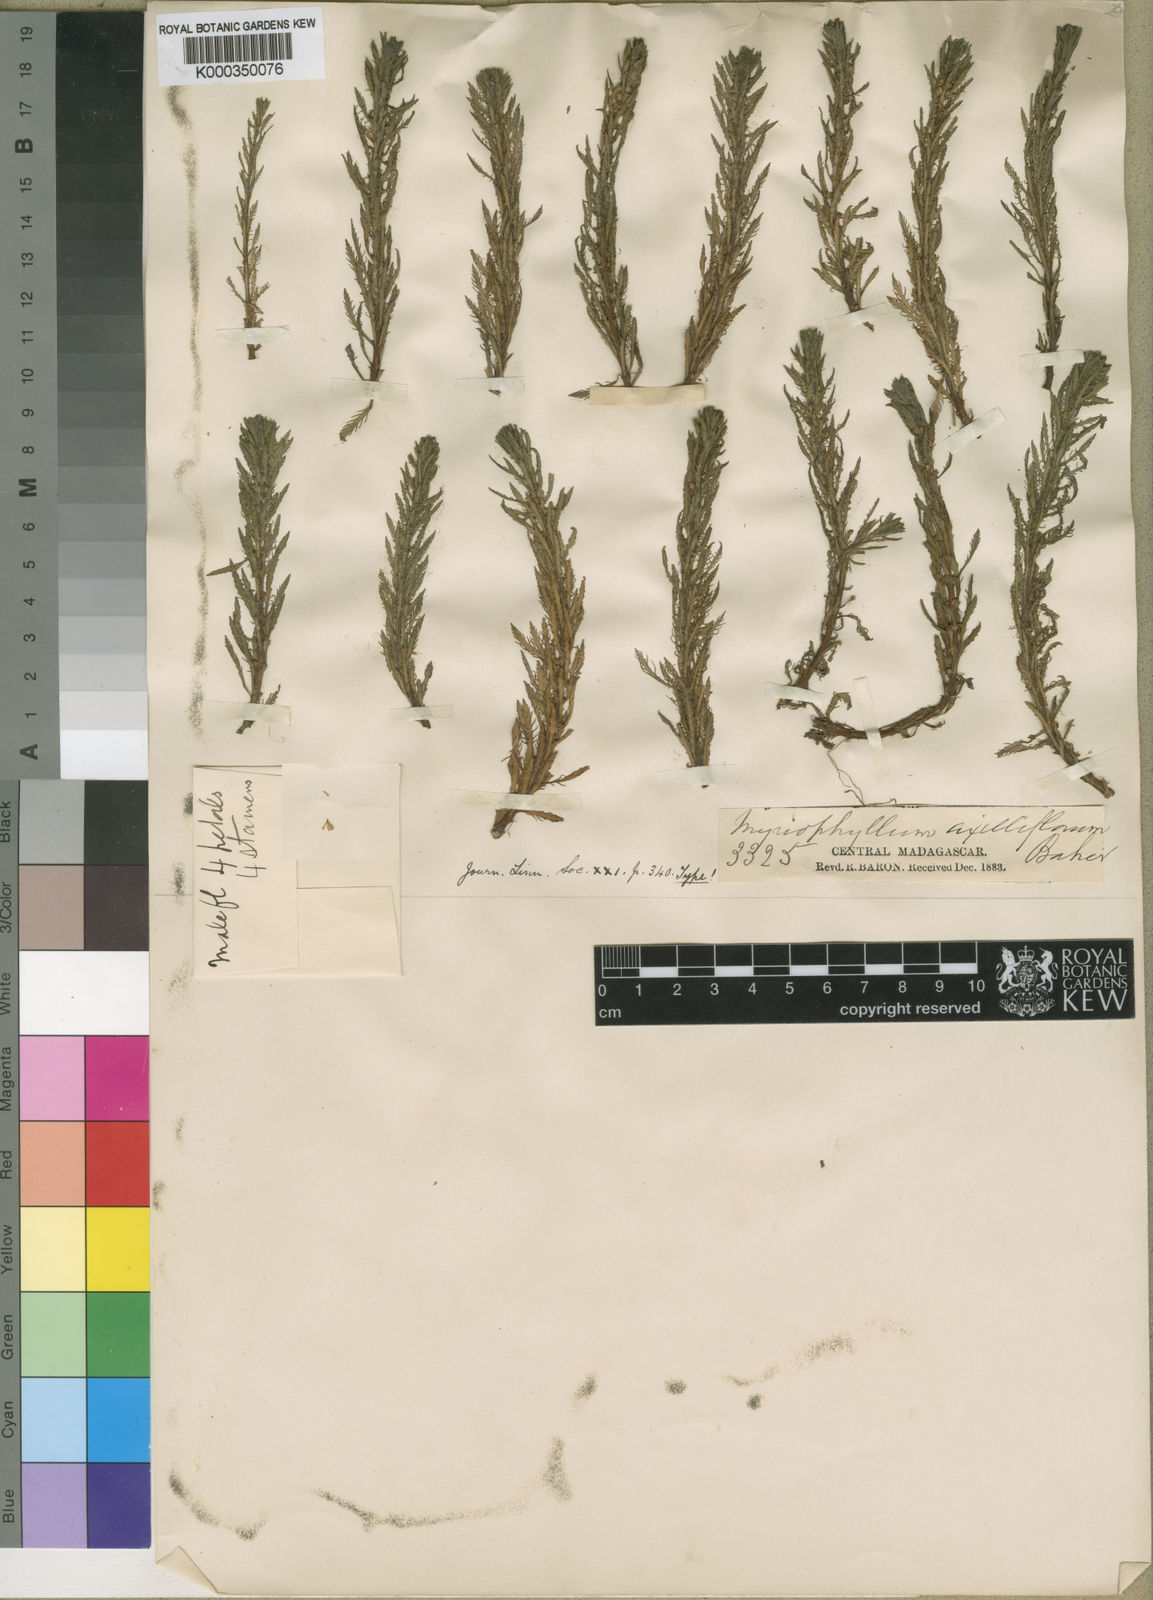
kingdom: Plantae
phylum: Tracheophyta
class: Magnoliopsida
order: Saxifragales
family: Haloragaceae
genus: Myriophyllum
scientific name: Myriophyllum axilliflorum
